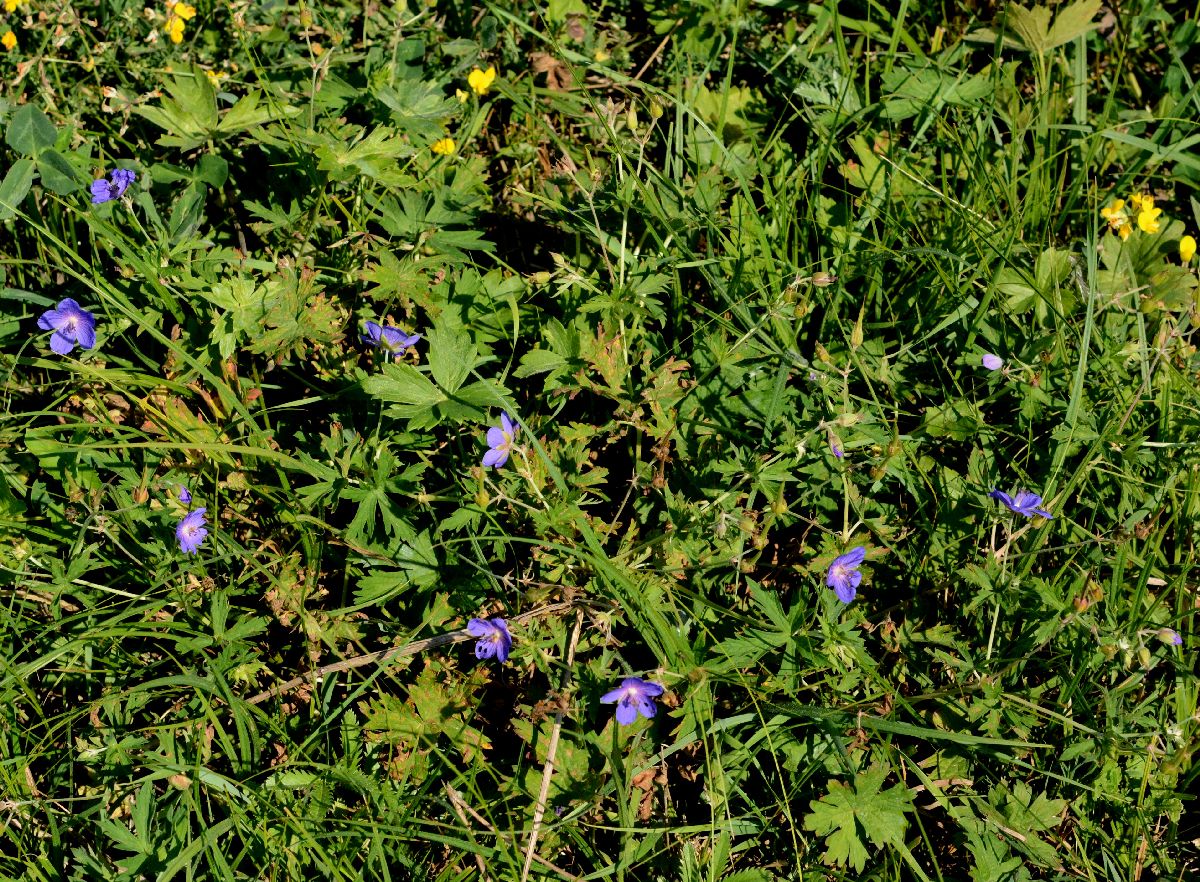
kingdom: Plantae
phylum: Tracheophyta
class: Magnoliopsida
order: Geraniales
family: Geraniaceae
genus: Geranium
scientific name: Geranium collinum
